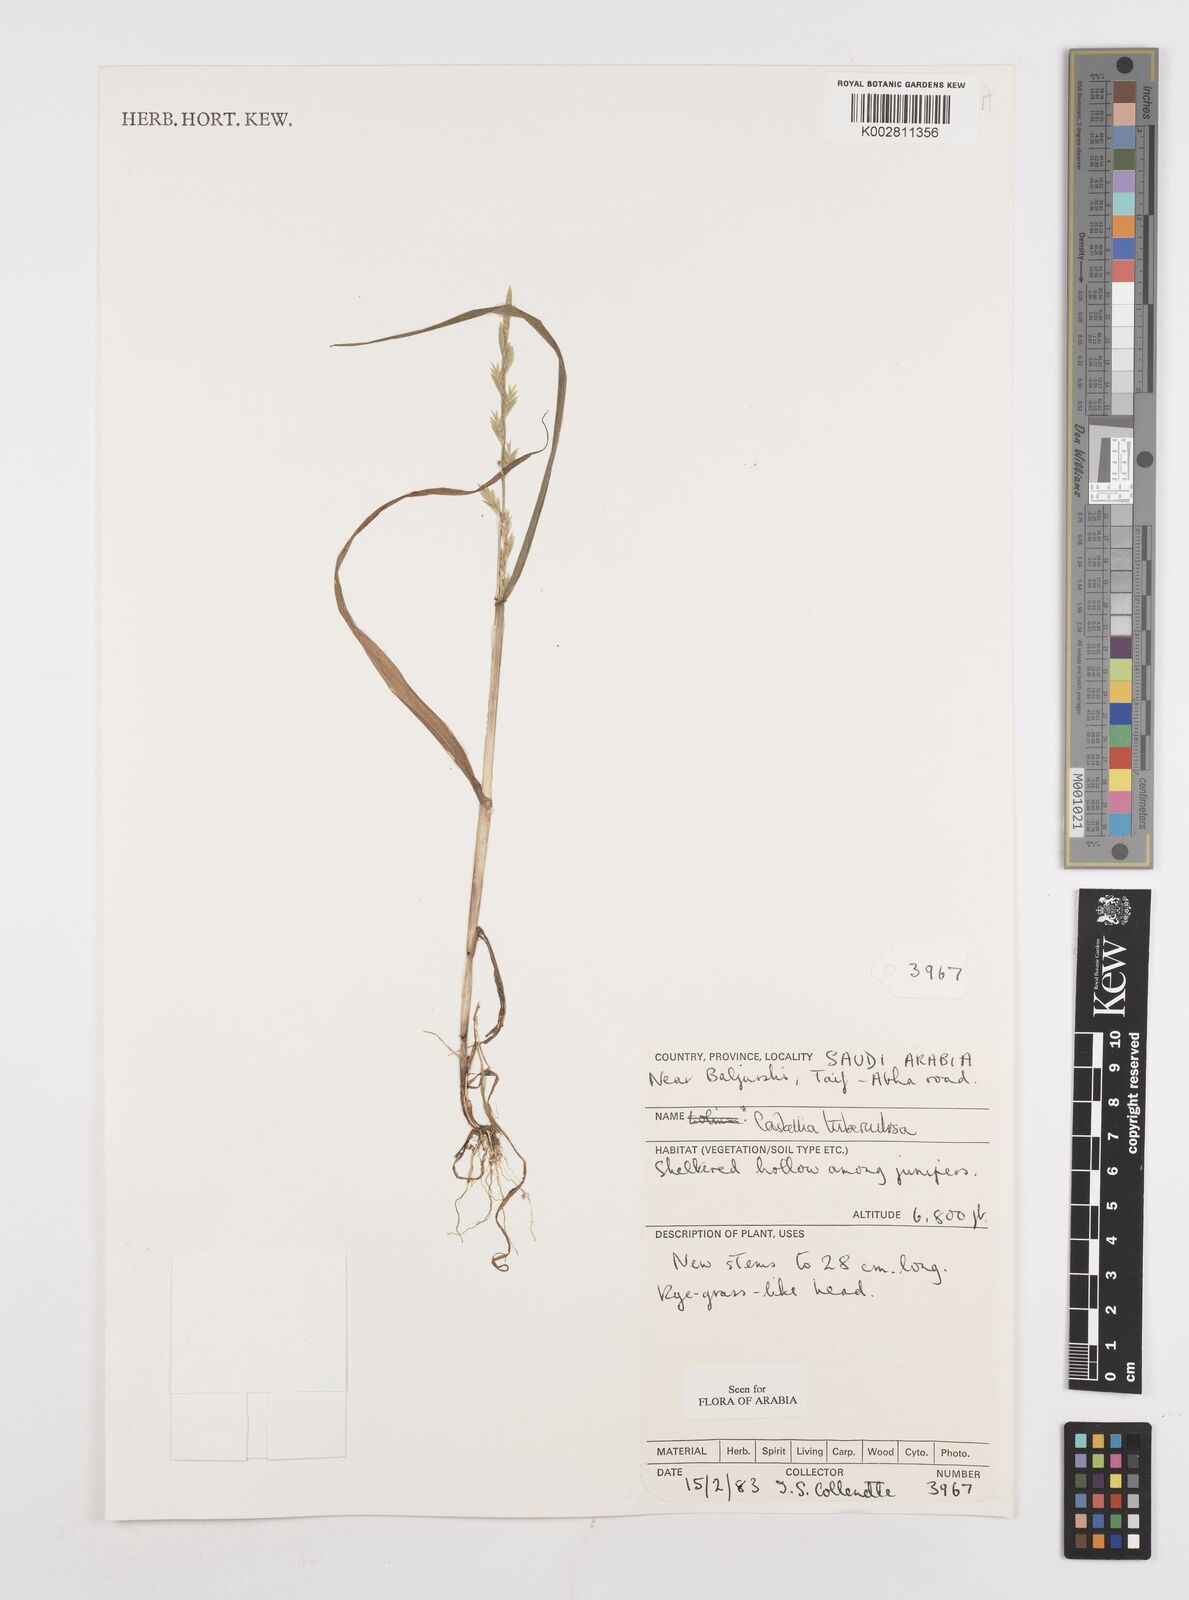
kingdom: Plantae
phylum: Tracheophyta
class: Liliopsida
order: Poales
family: Poaceae
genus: Castellia
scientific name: Castellia tuberculosa
